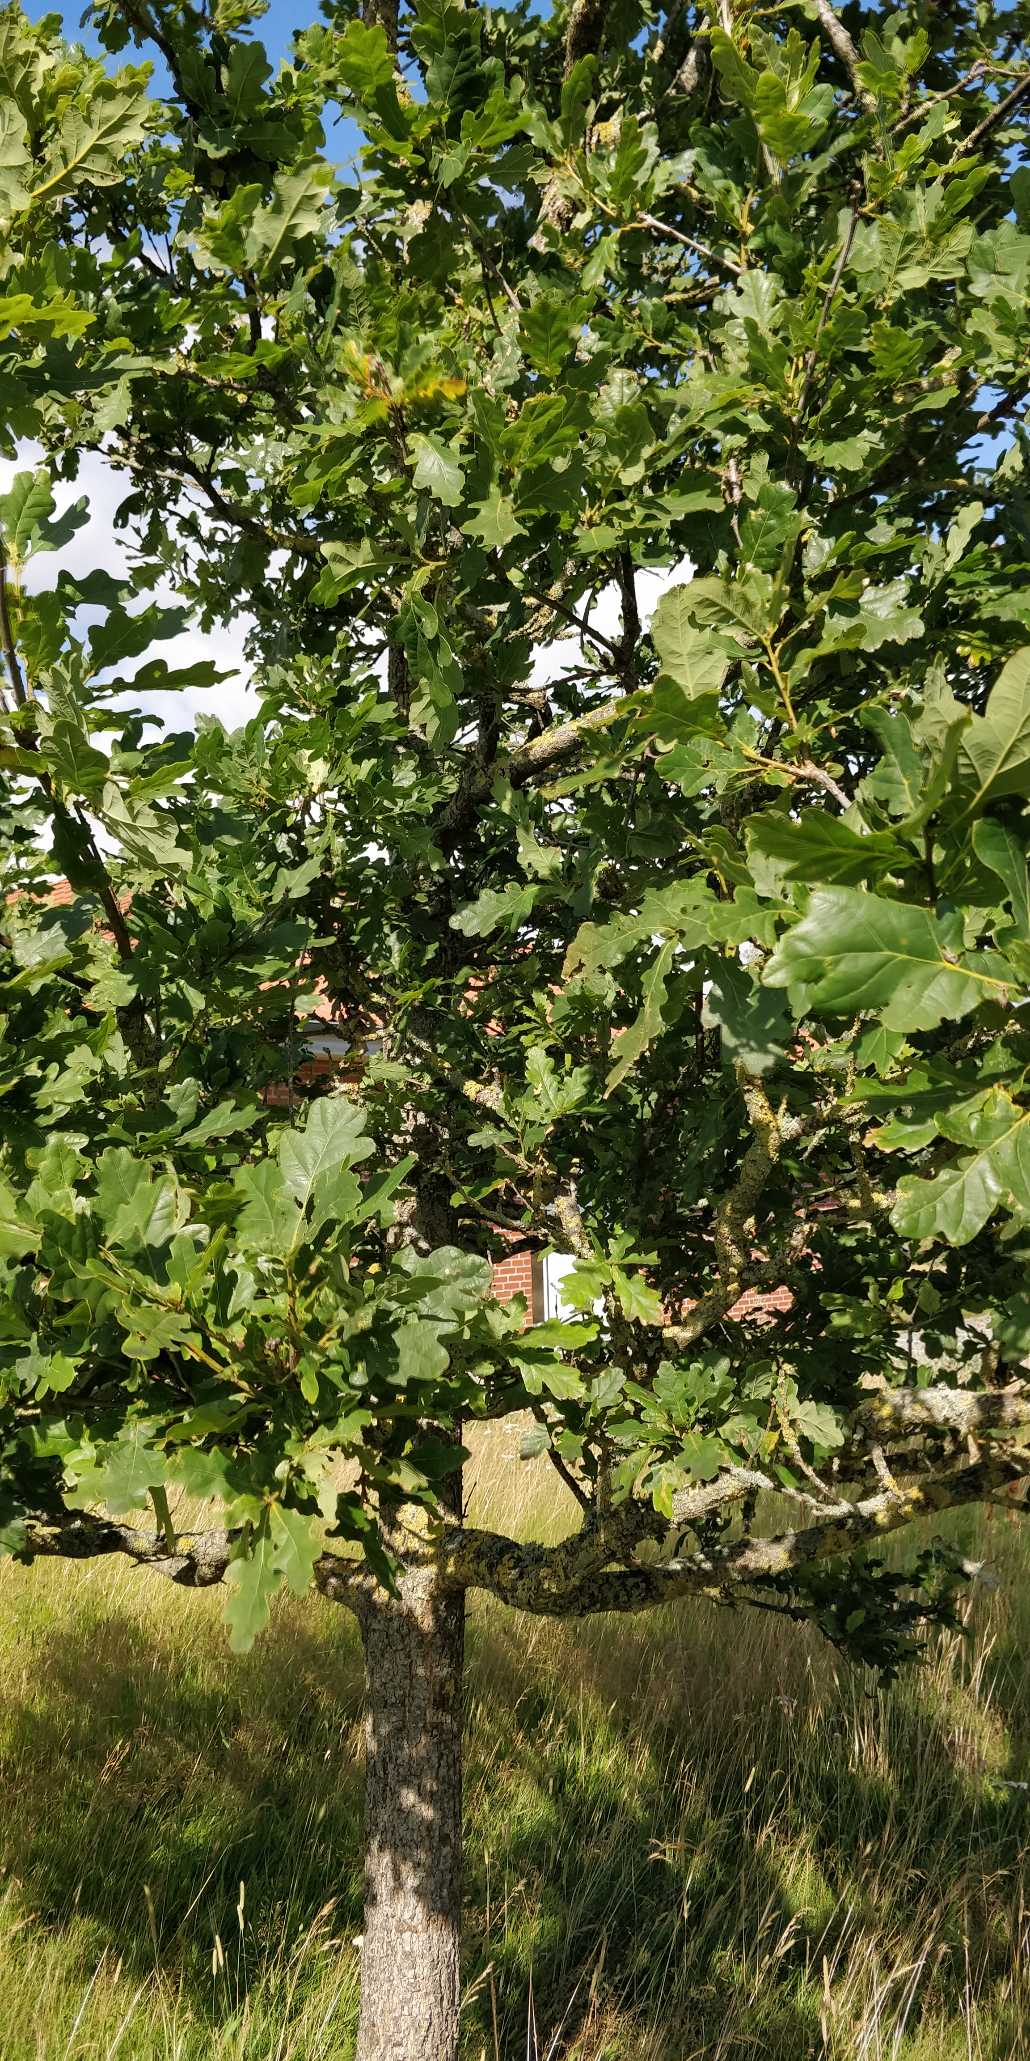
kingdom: Plantae
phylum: Tracheophyta
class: Magnoliopsida
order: Fagales
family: Fagaceae
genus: Quercus
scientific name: Quercus robur
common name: Stilk-eg/almindelig eg
